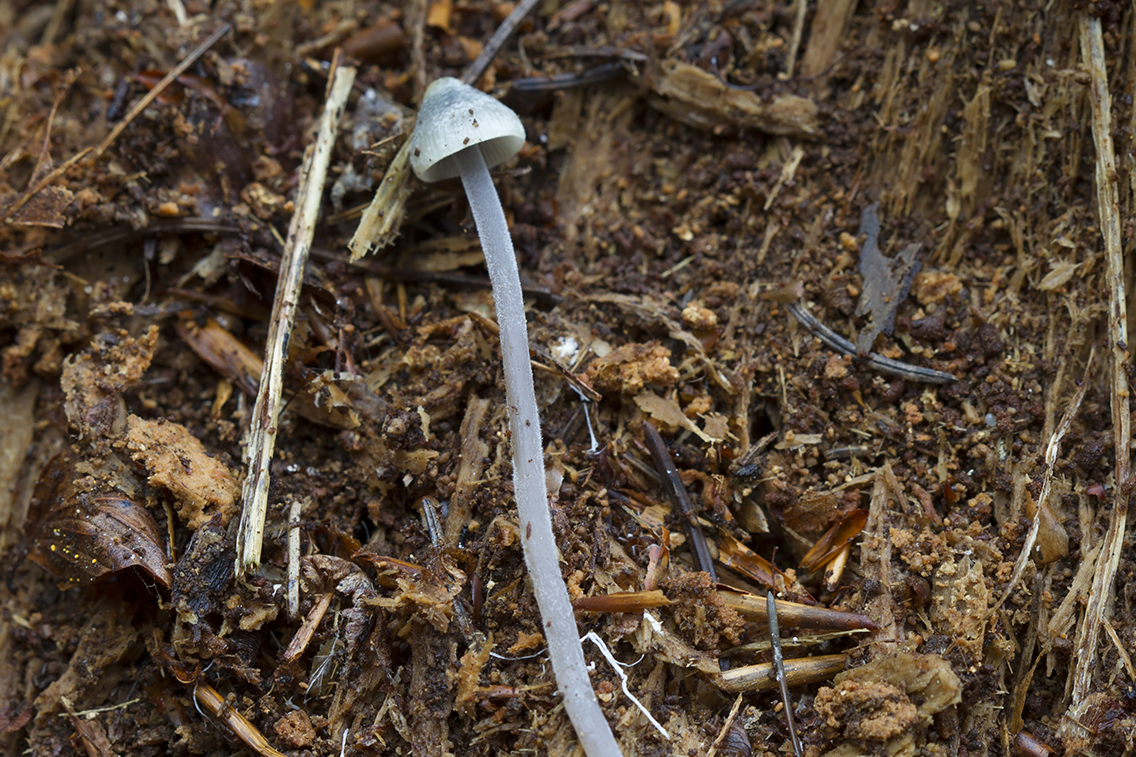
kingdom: Fungi
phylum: Basidiomycota
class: Agaricomycetes
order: Agaricales
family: Mycenaceae
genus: Mycena
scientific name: Mycena amicta
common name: iris-huesvamp
